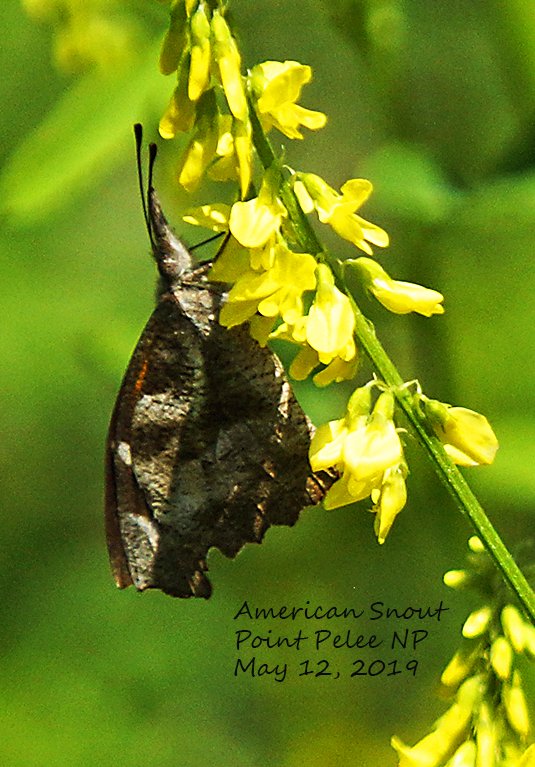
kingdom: Animalia
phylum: Arthropoda
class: Insecta
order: Lepidoptera
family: Nymphalidae
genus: Libytheana
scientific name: Libytheana carinenta
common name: American Snout
